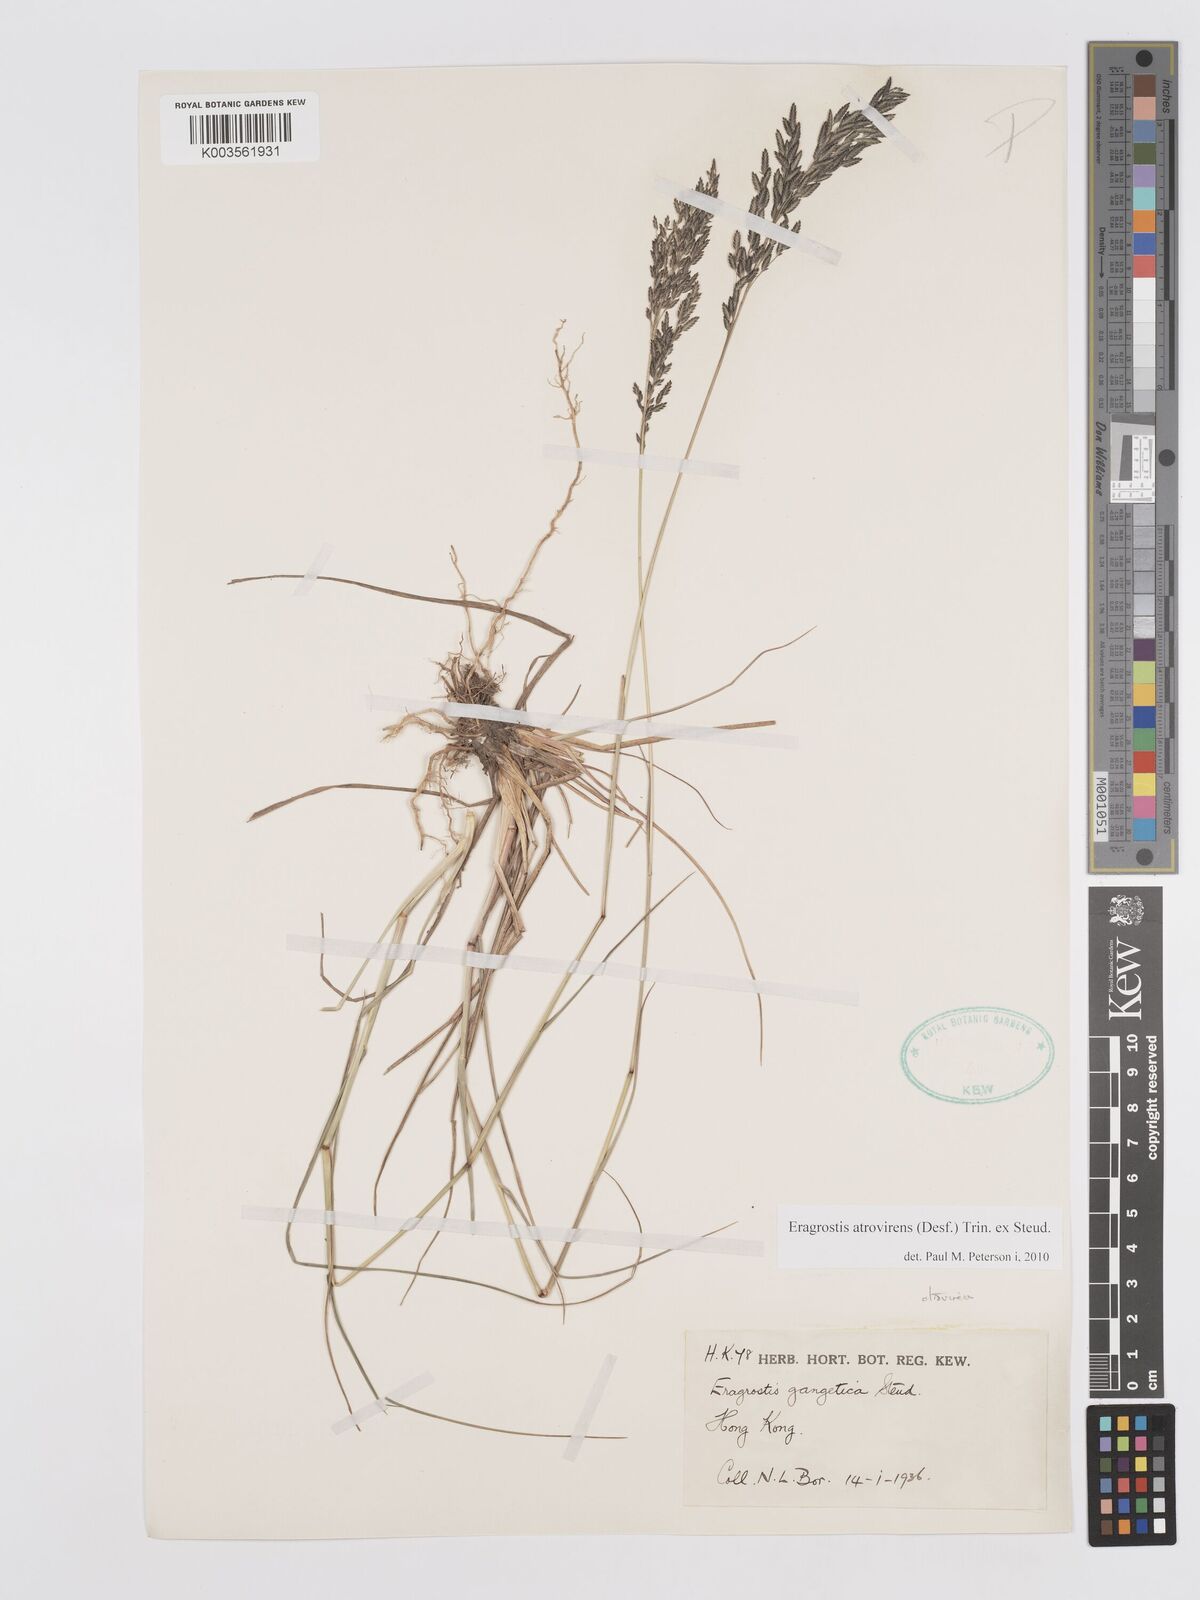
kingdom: Plantae
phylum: Tracheophyta
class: Liliopsida
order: Poales
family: Poaceae
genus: Eragrostis
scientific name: Eragrostis atrovirens
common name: Thalia lovegrass
